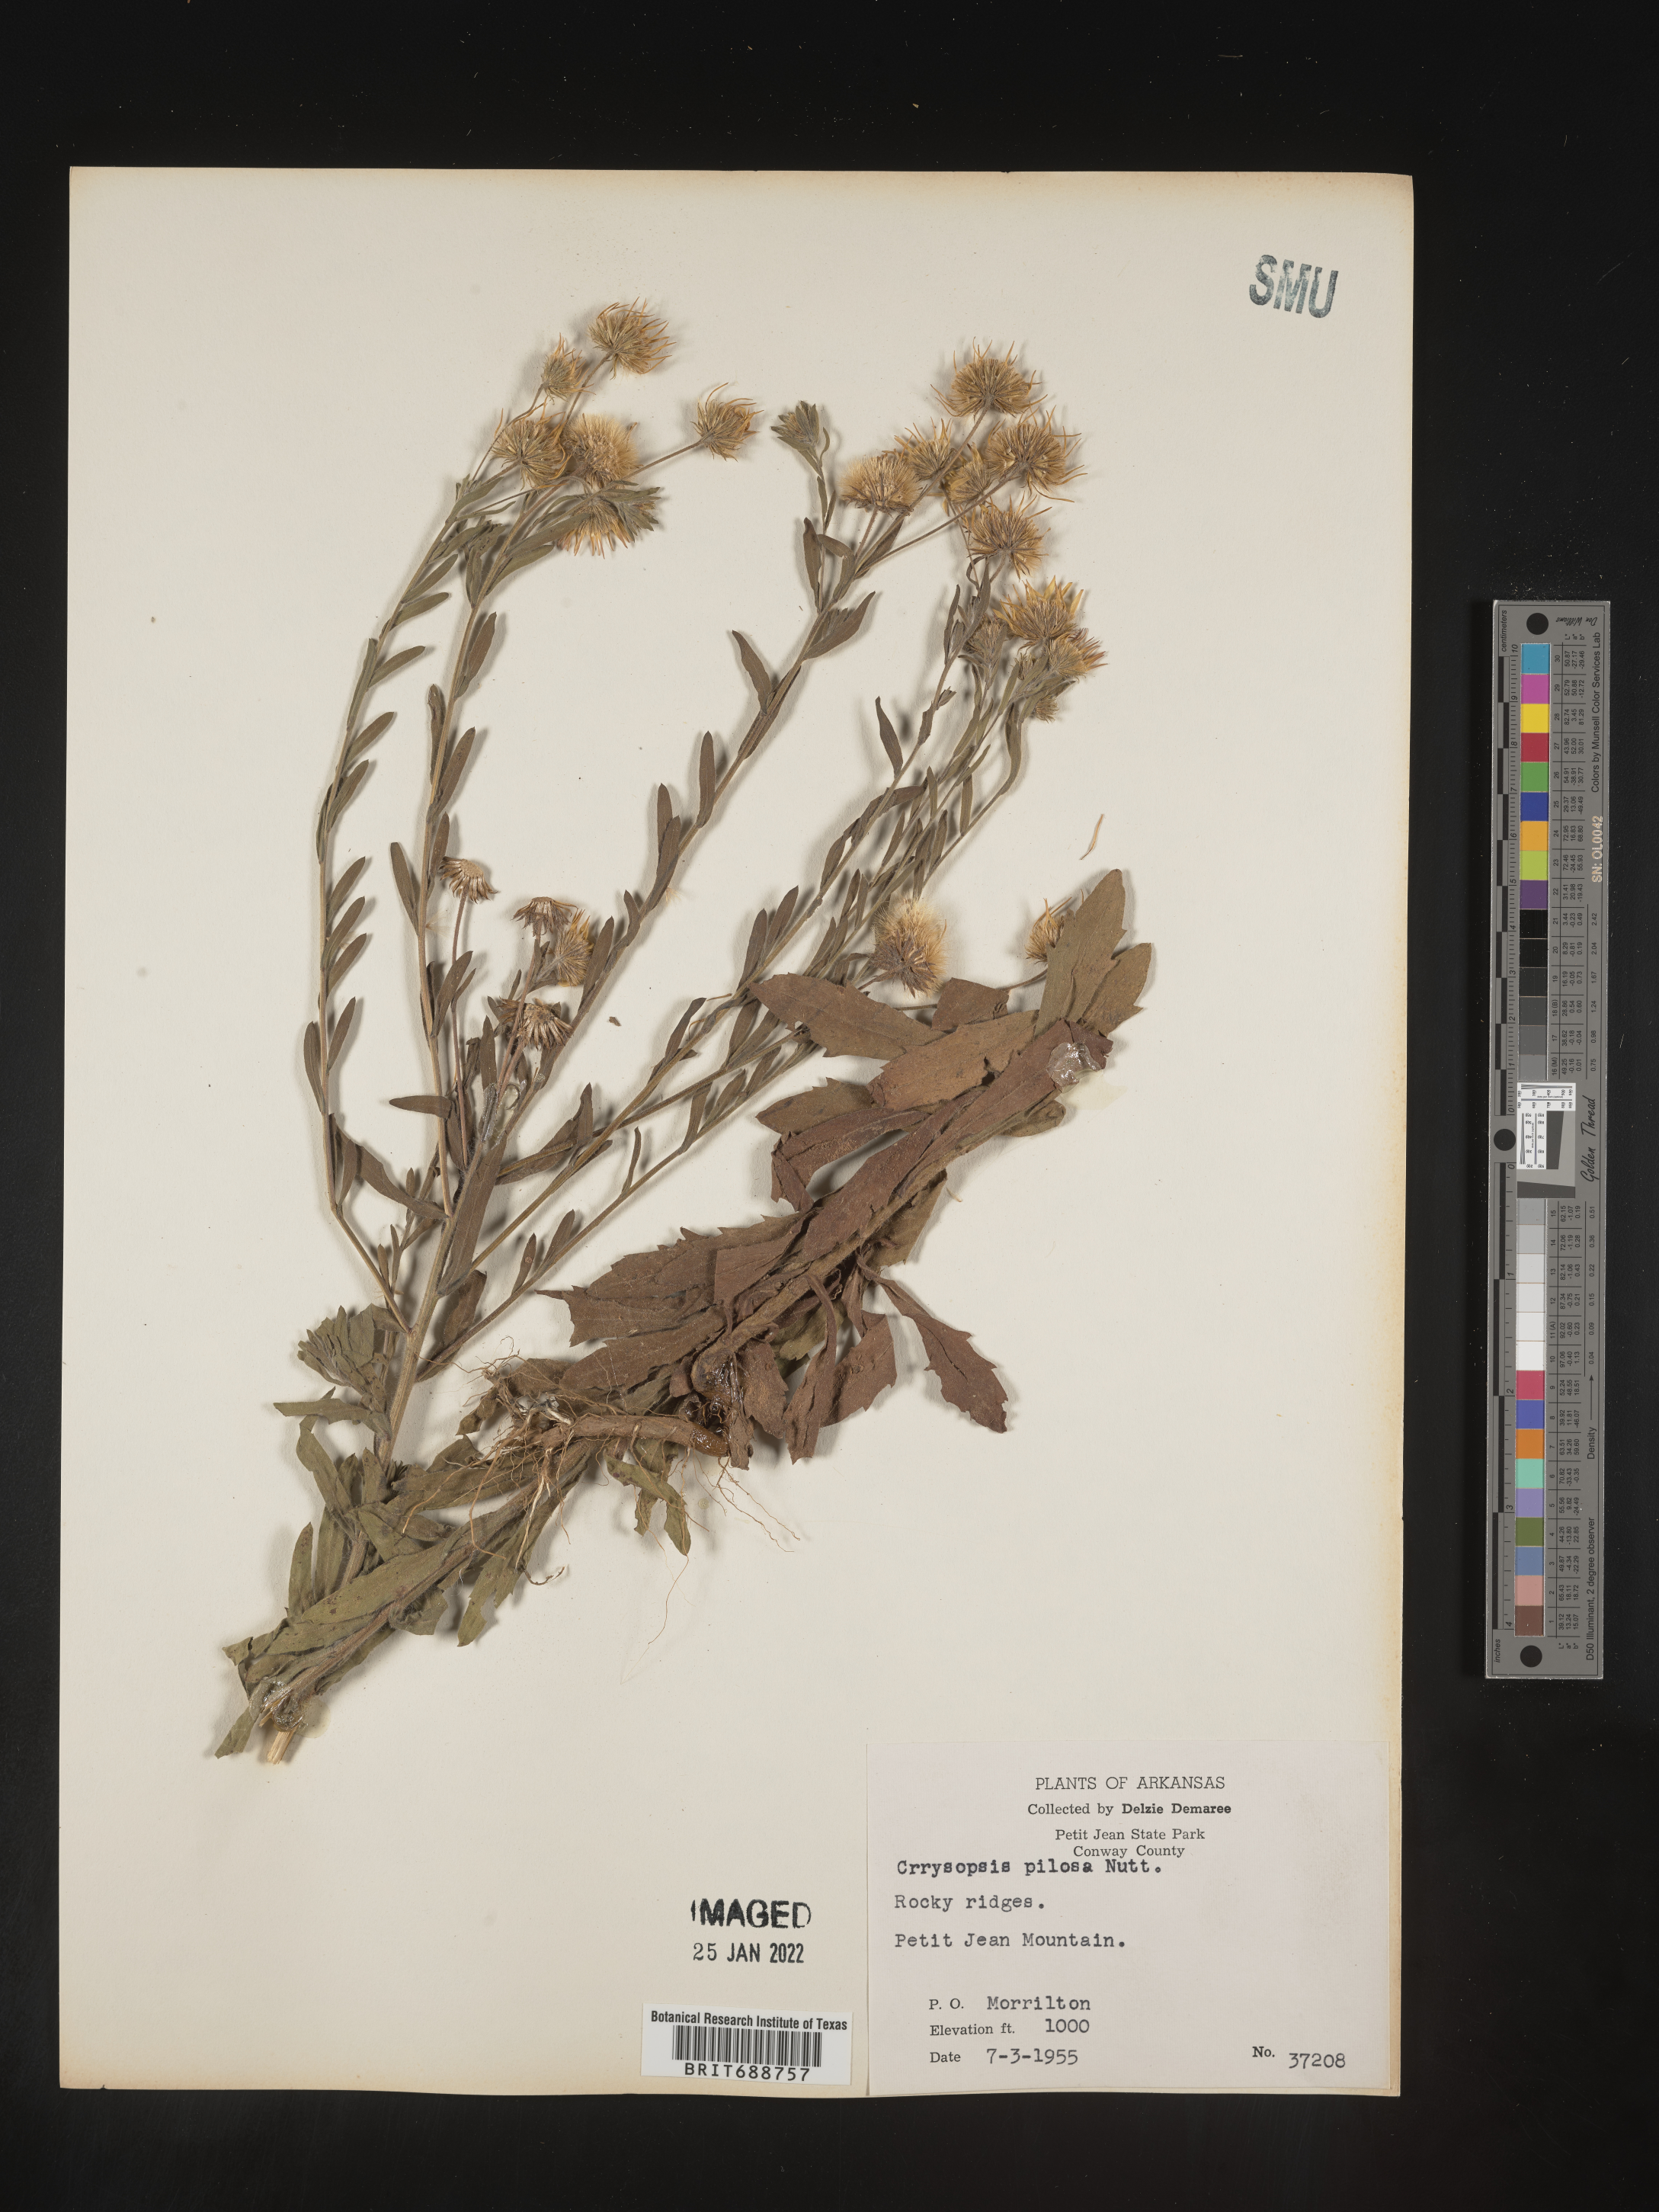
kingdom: Plantae
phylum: Tracheophyta
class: Magnoliopsida
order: Asterales
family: Asteraceae
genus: Bradburia
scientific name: Bradburia pilosa
